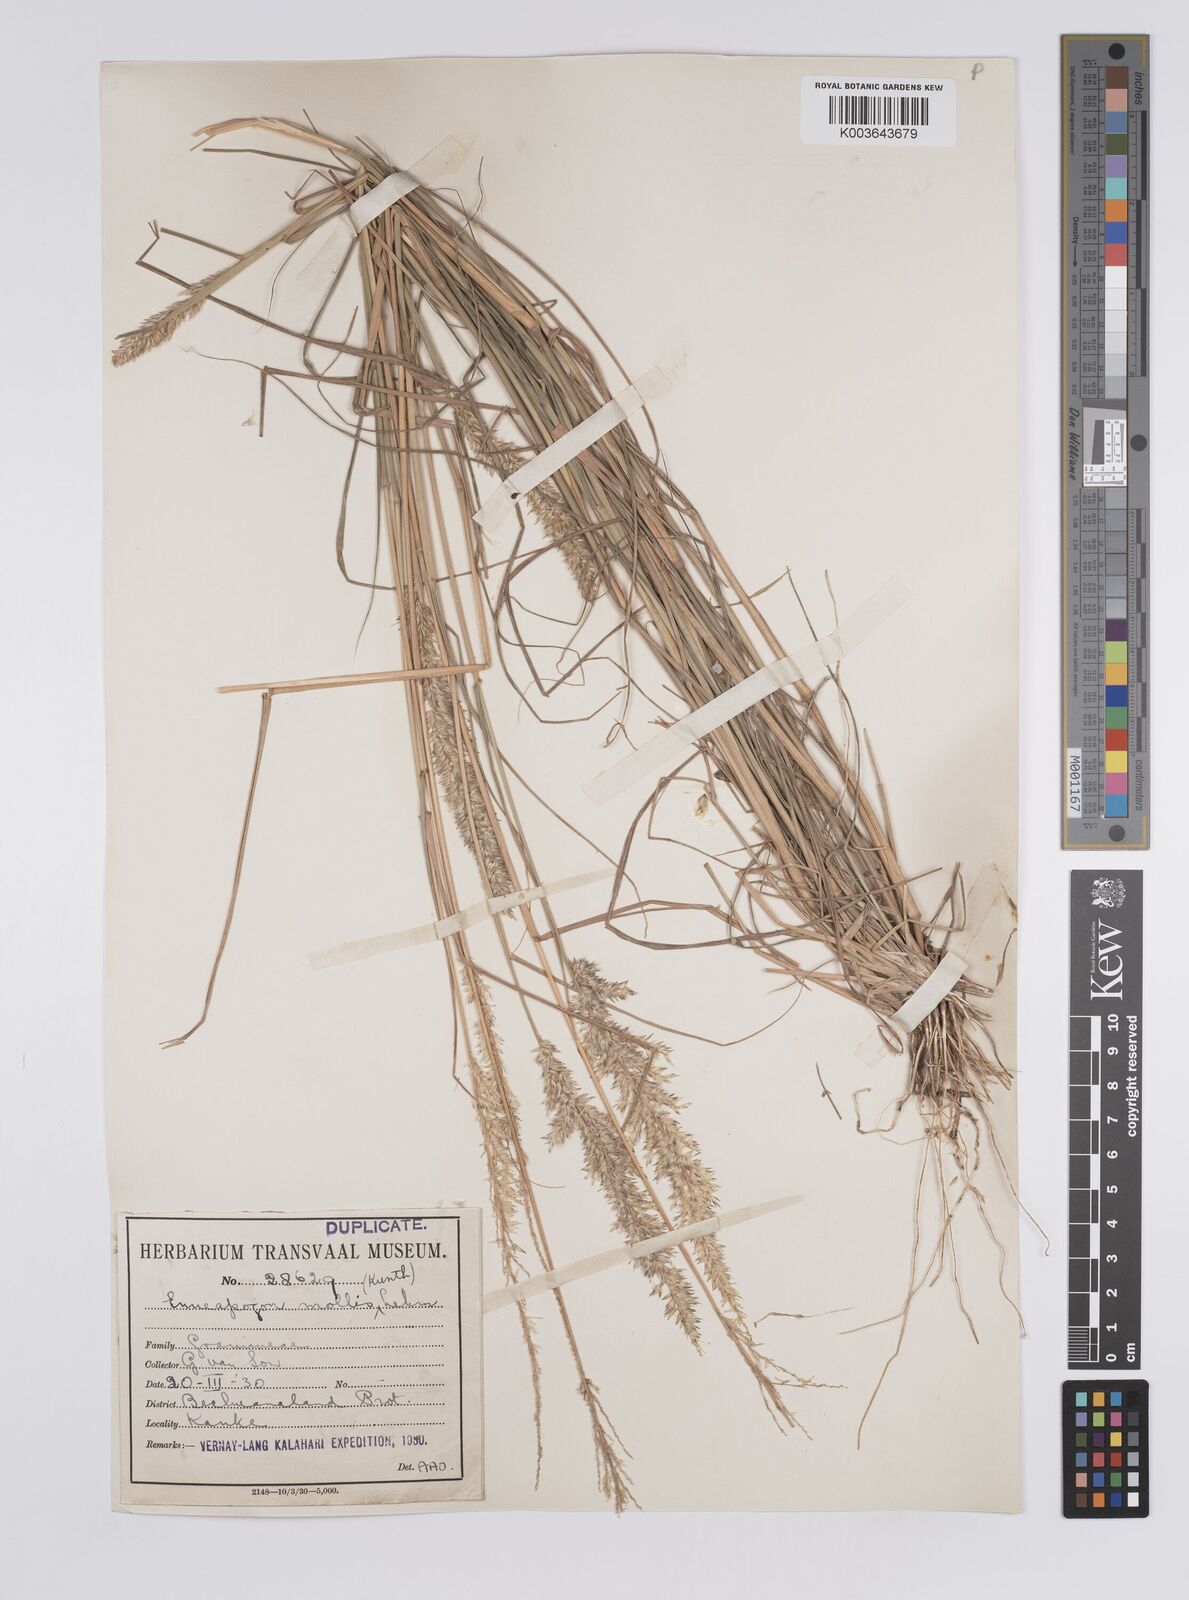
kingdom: Plantae
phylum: Tracheophyta
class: Liliopsida
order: Poales
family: Poaceae
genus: Enneapogon
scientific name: Enneapogon cenchroides
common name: Soft feather pappusgrass
